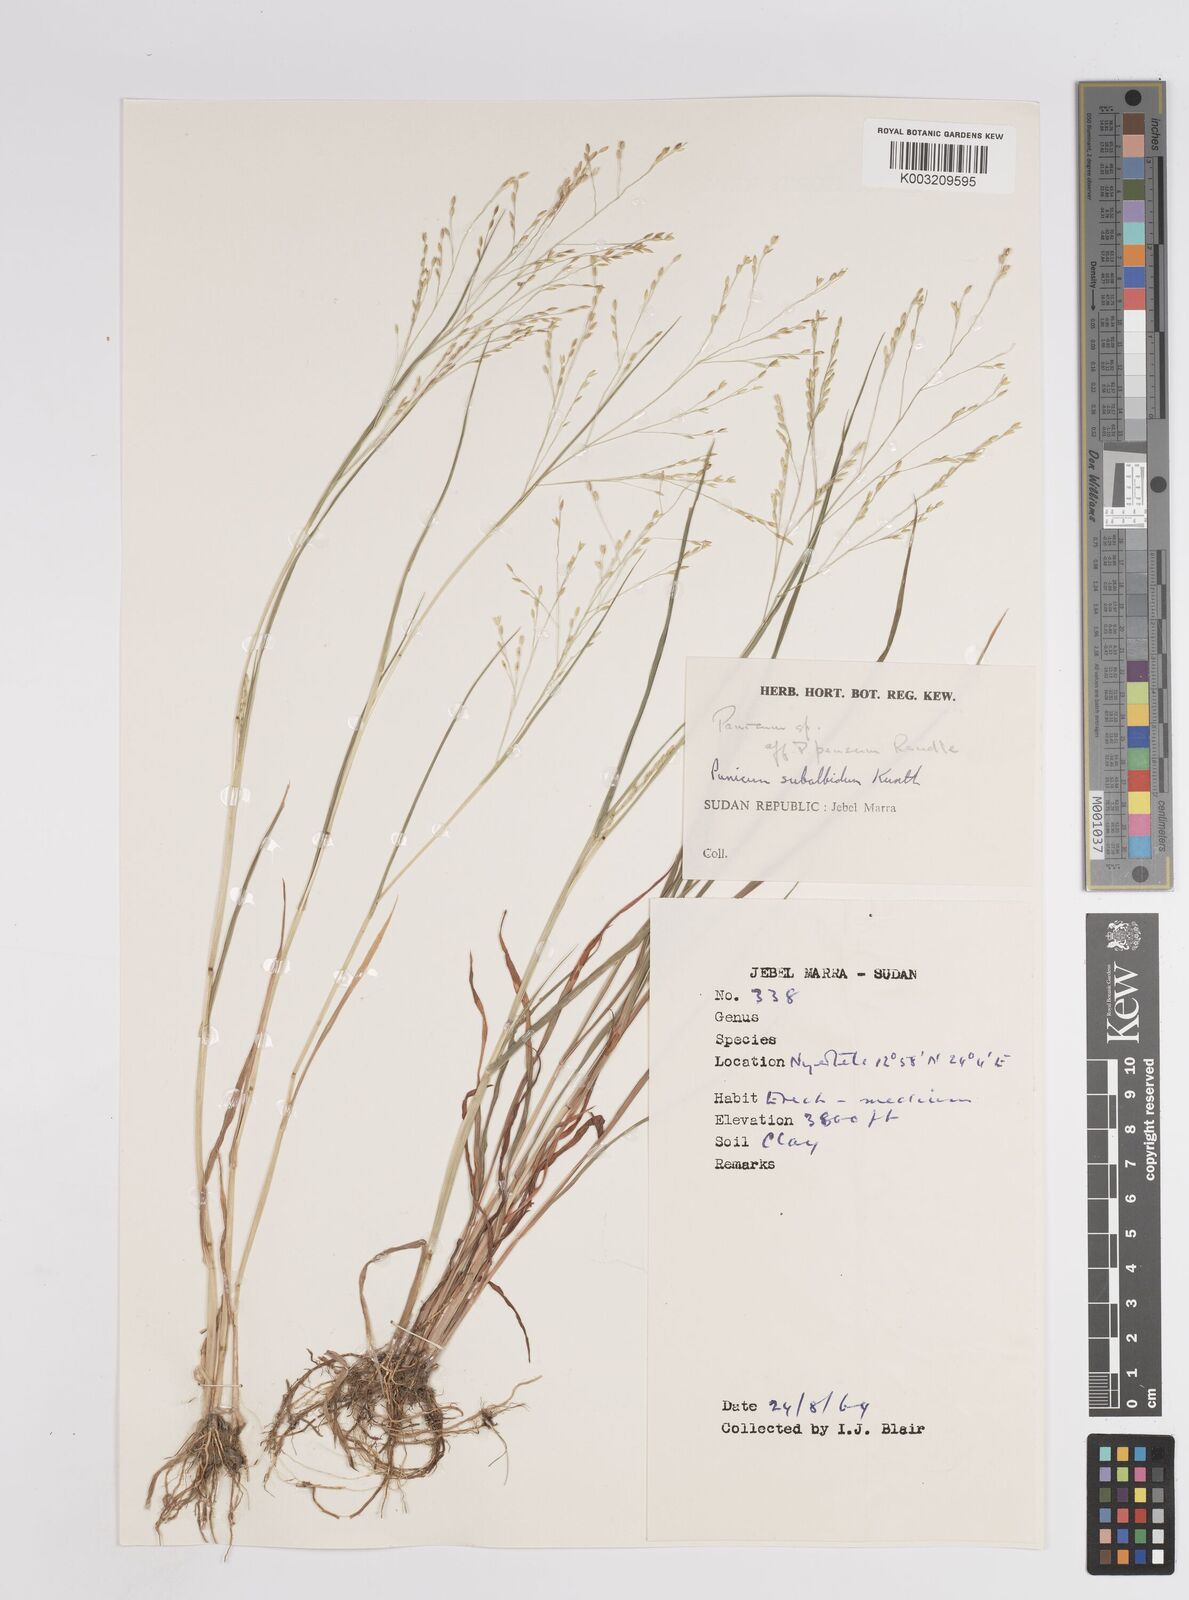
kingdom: Plantae
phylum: Tracheophyta
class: Liliopsida
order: Poales
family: Poaceae
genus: Panicum
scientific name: Panicum subalbidum
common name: Elbow buffalo grass
